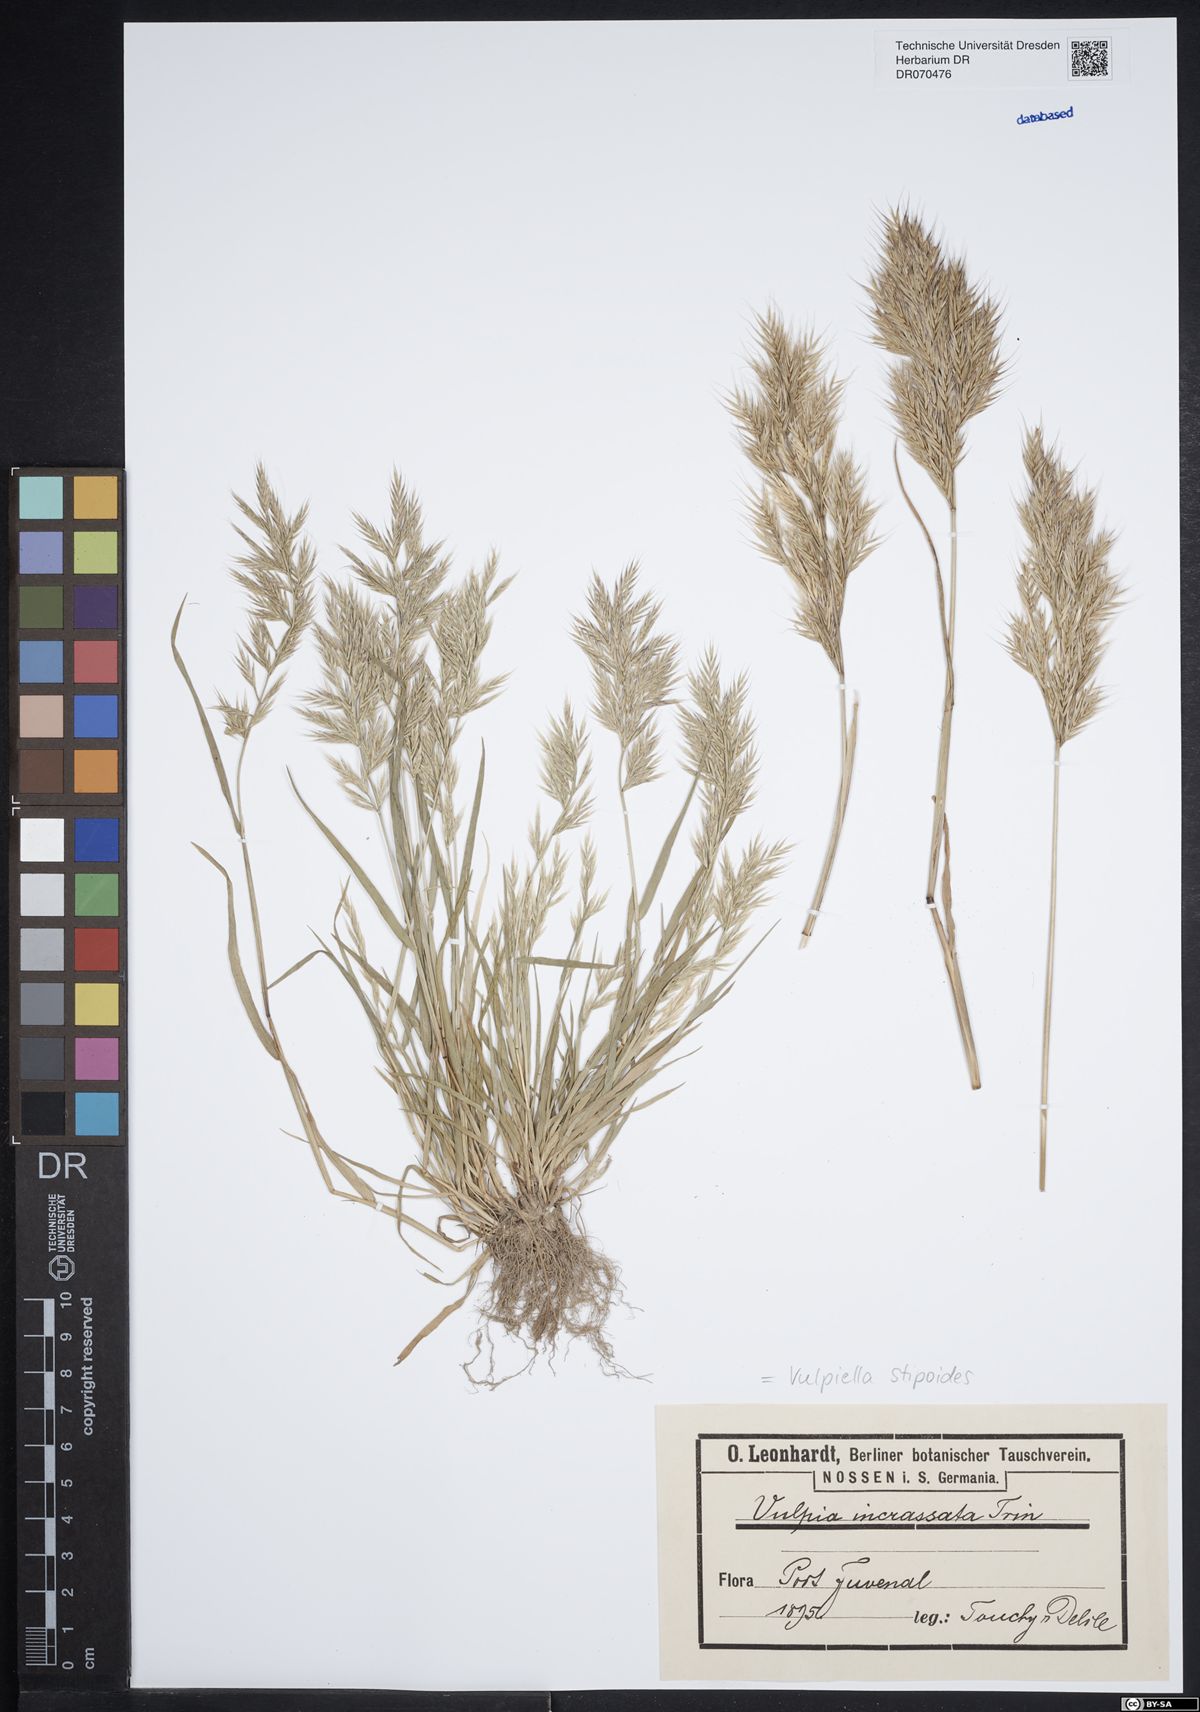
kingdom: Plantae
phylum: Tracheophyta
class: Liliopsida
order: Poales
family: Poaceae
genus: Vulpiella
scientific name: Vulpiella stipoides
